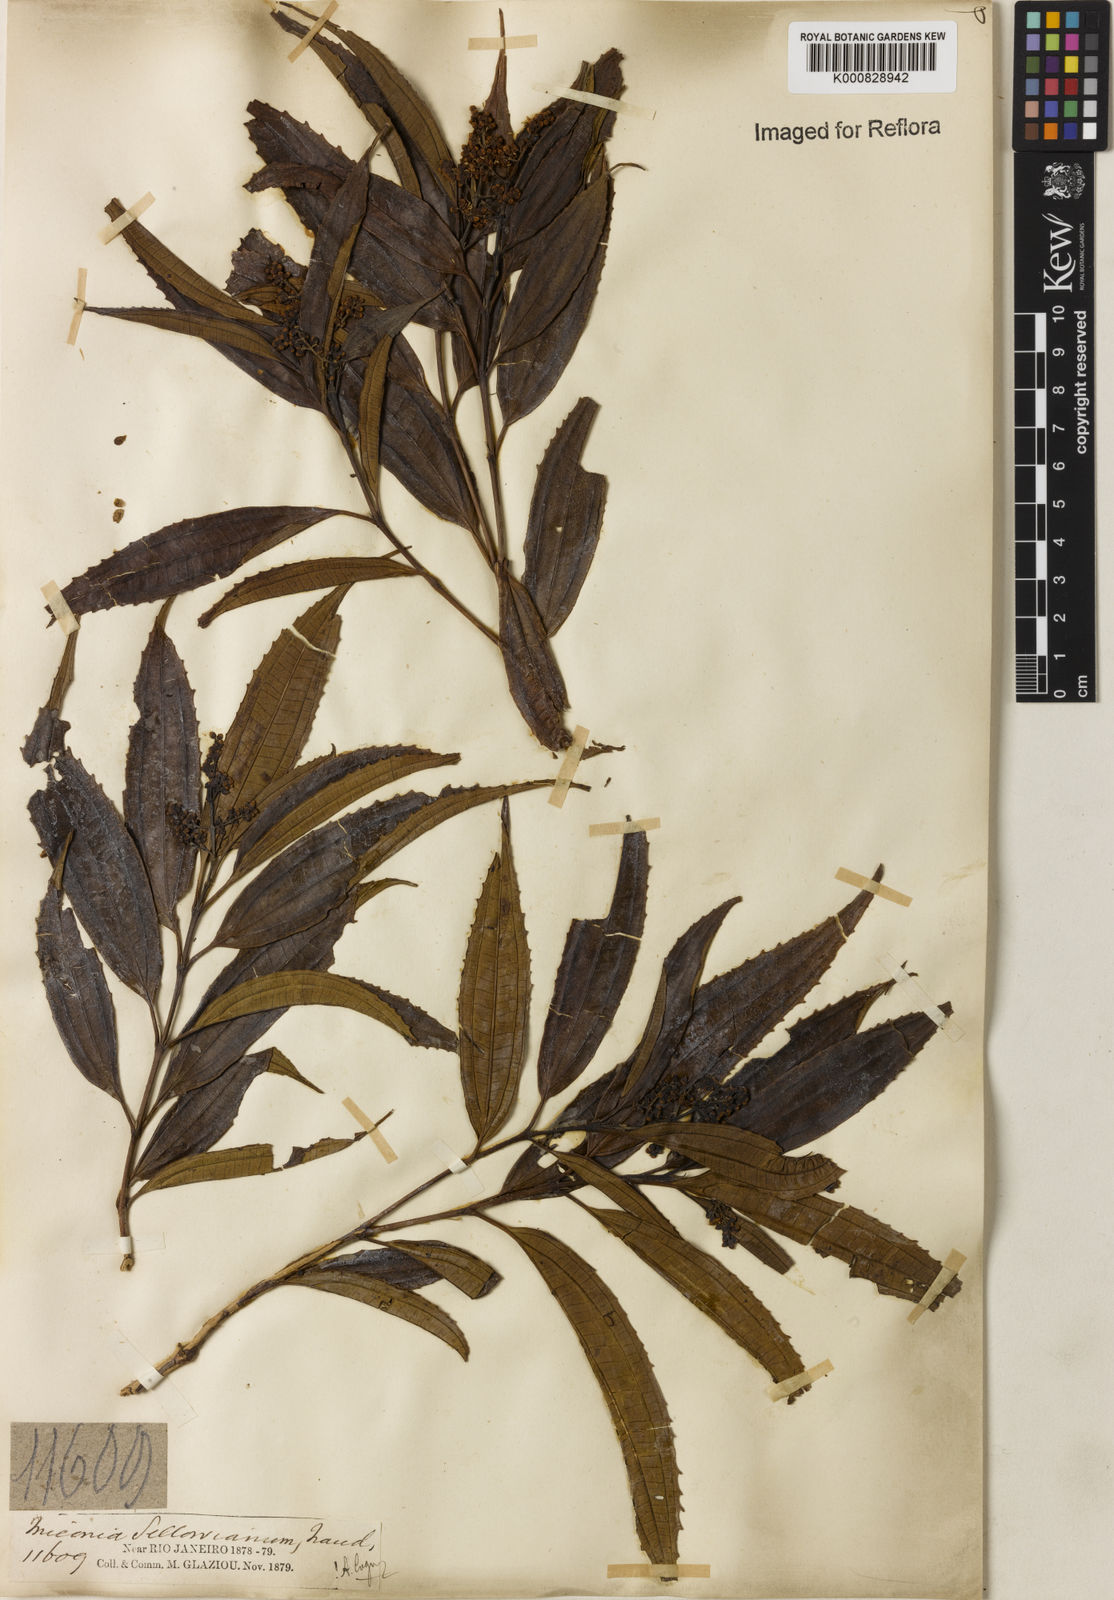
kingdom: Plantae
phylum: Tracheophyta
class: Magnoliopsida
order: Myrtales
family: Melastomataceae
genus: Miconia
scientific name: Miconia sellowiana
